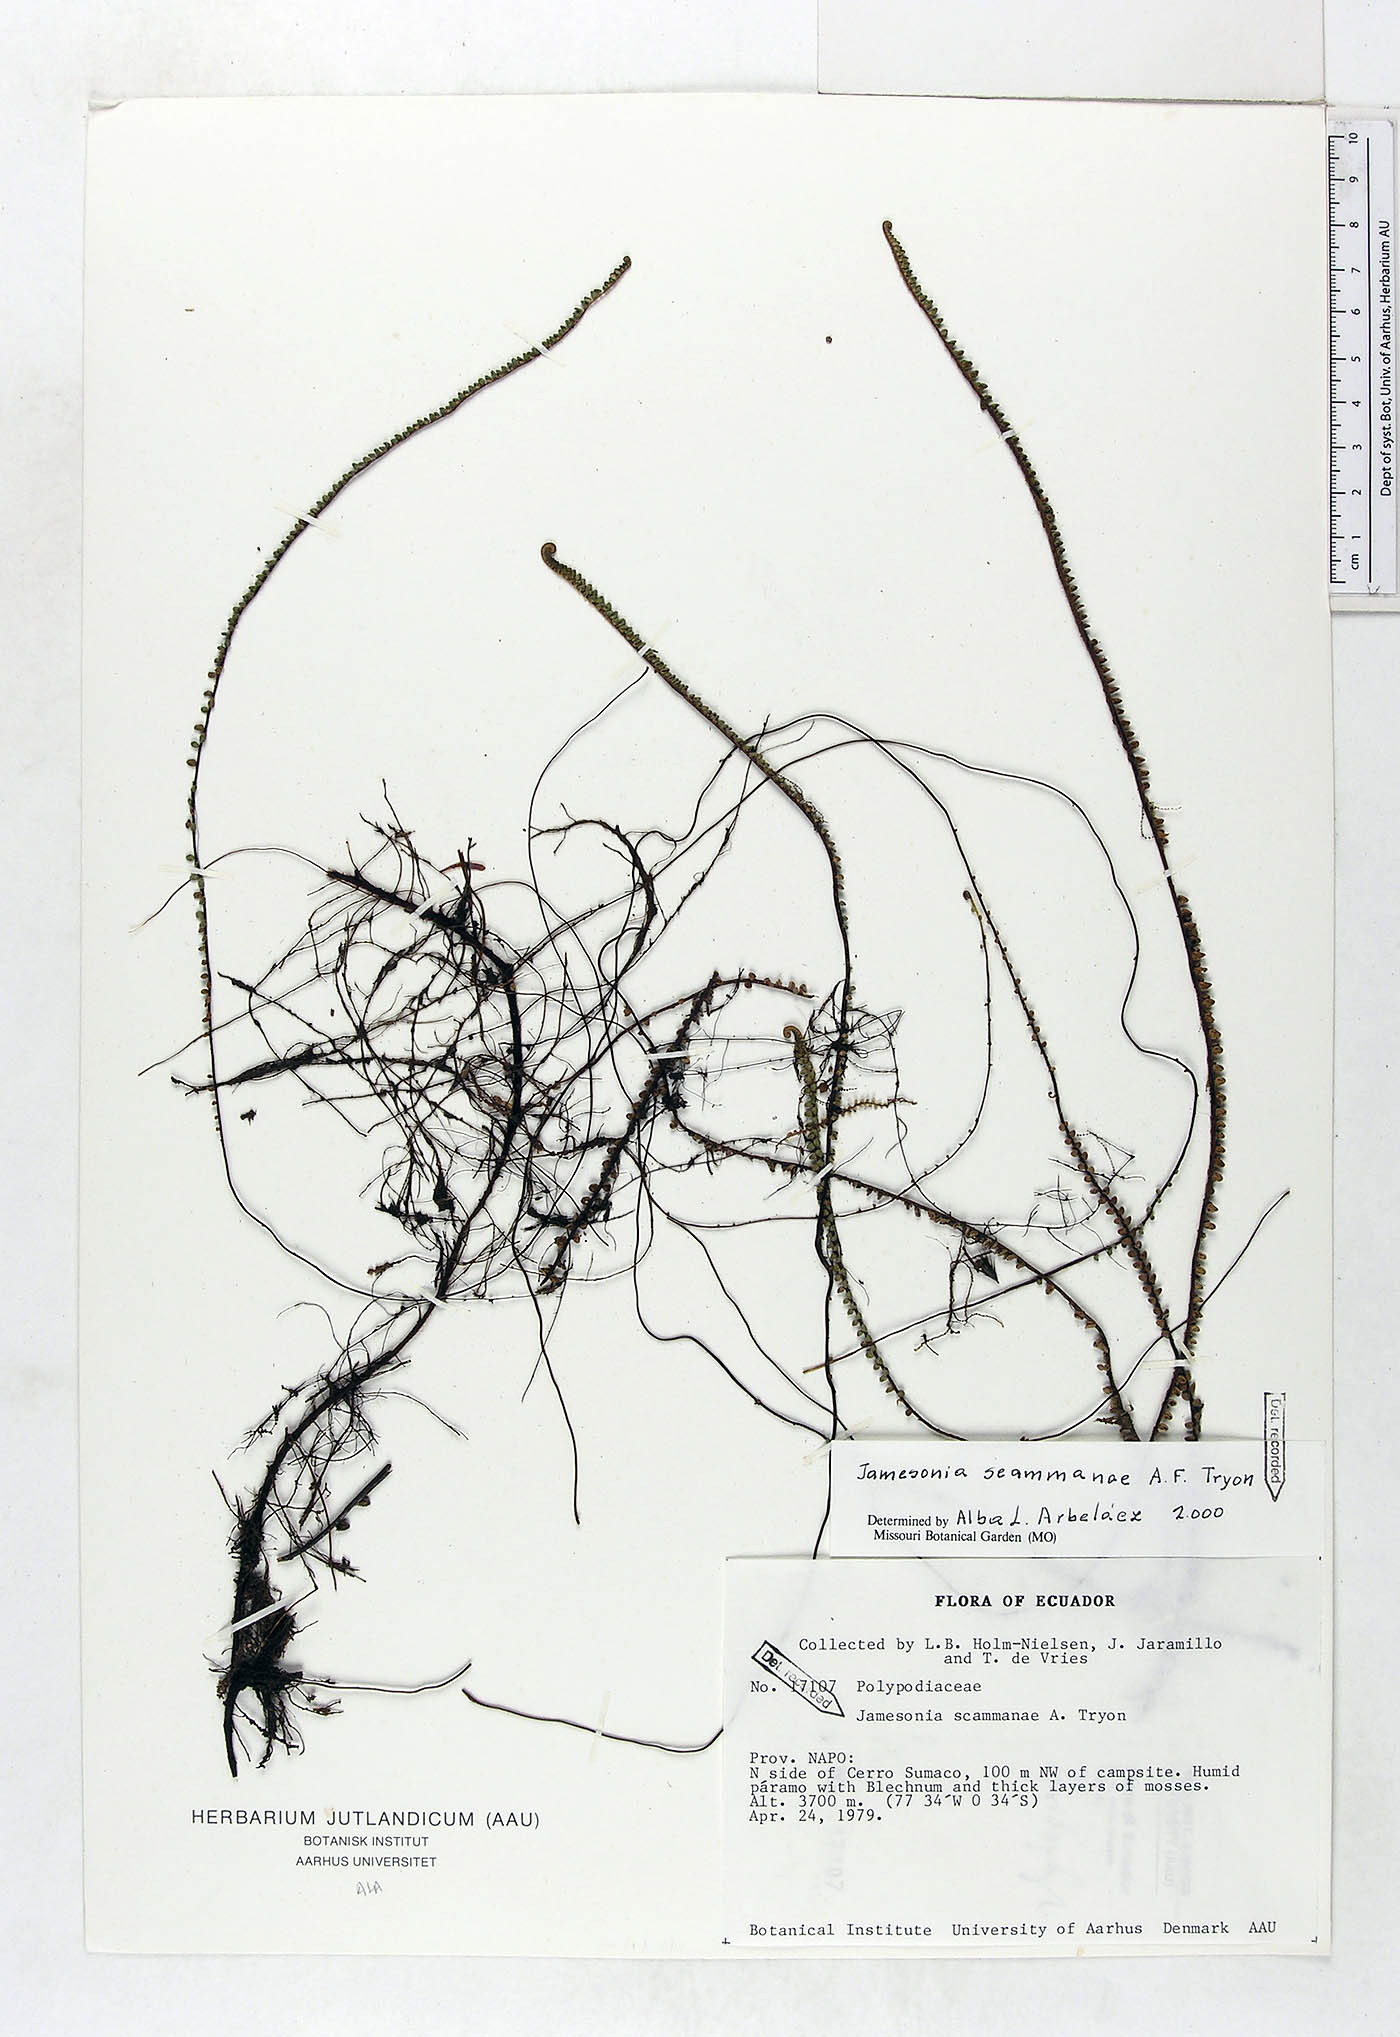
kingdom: Plantae
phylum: Tracheophyta
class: Polypodiopsida
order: Polypodiales
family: Pteridaceae
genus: Jamesonia
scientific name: Jamesonia scammanae
